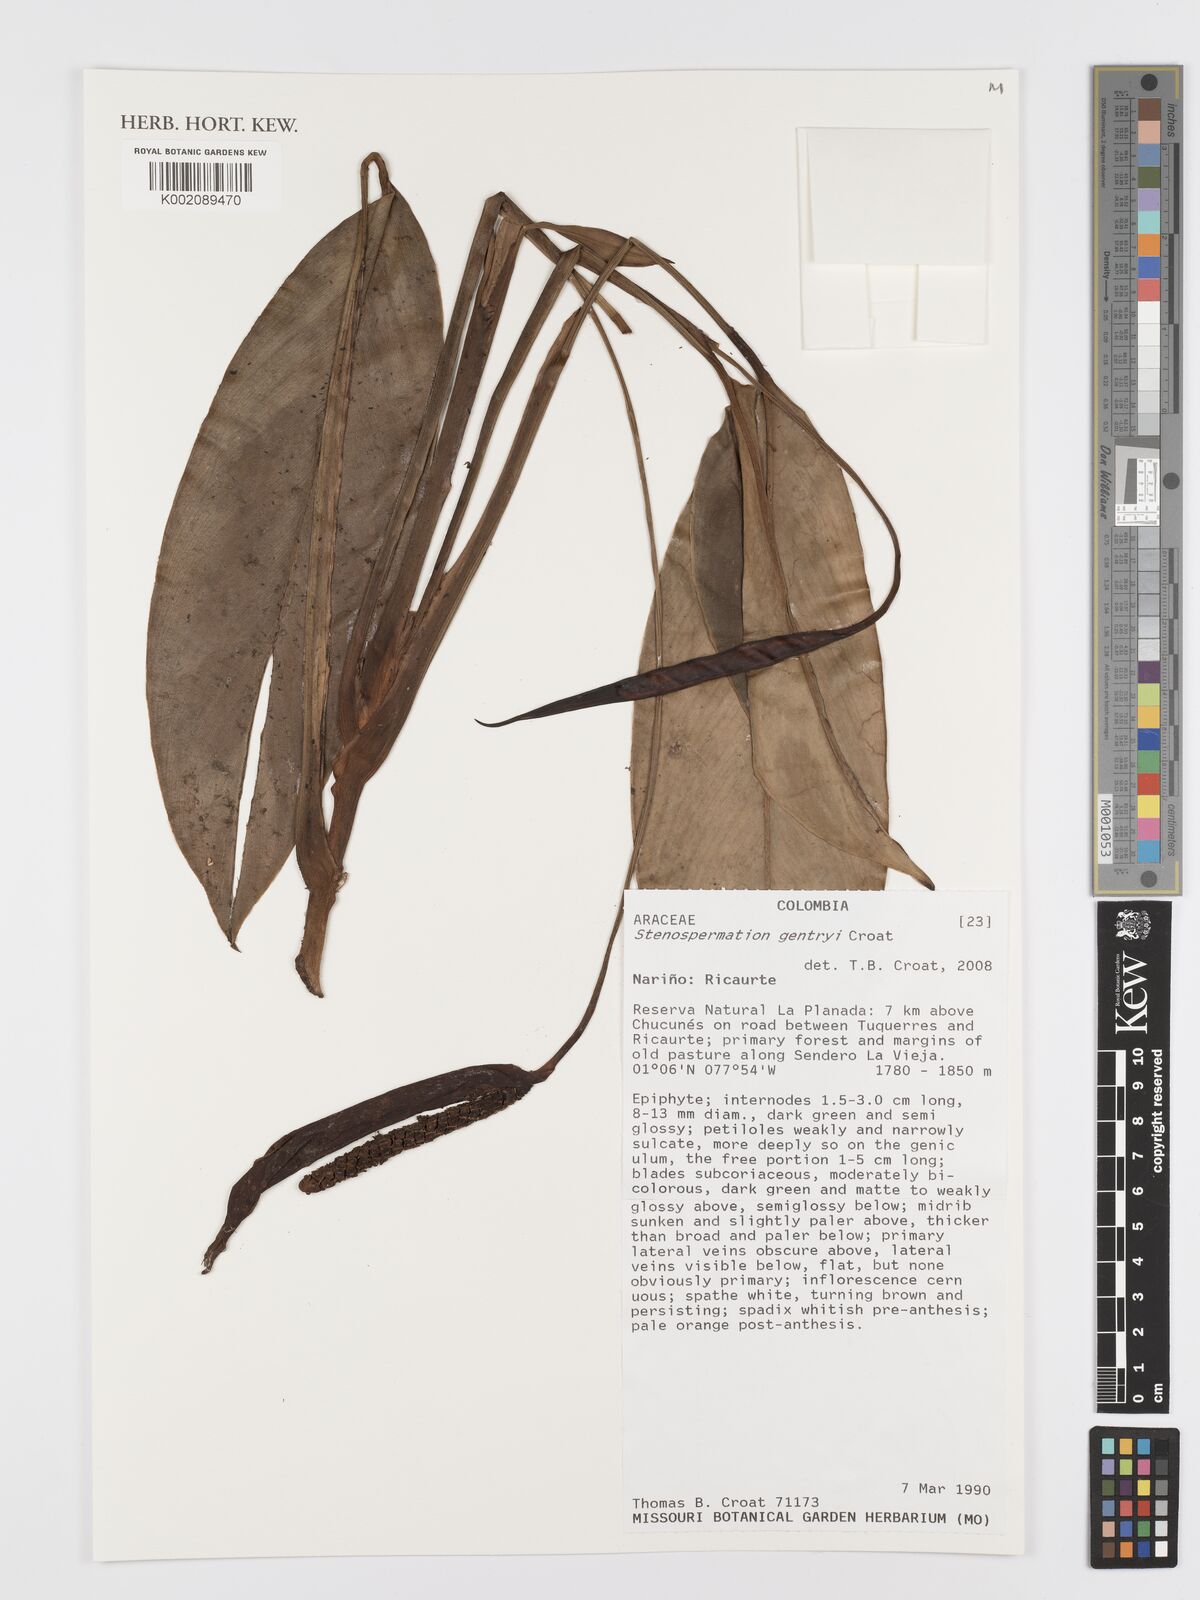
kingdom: Plantae
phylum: Tracheophyta
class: Liliopsida
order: Alismatales
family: Araceae
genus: Stenospermation
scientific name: Stenospermation gentryi
